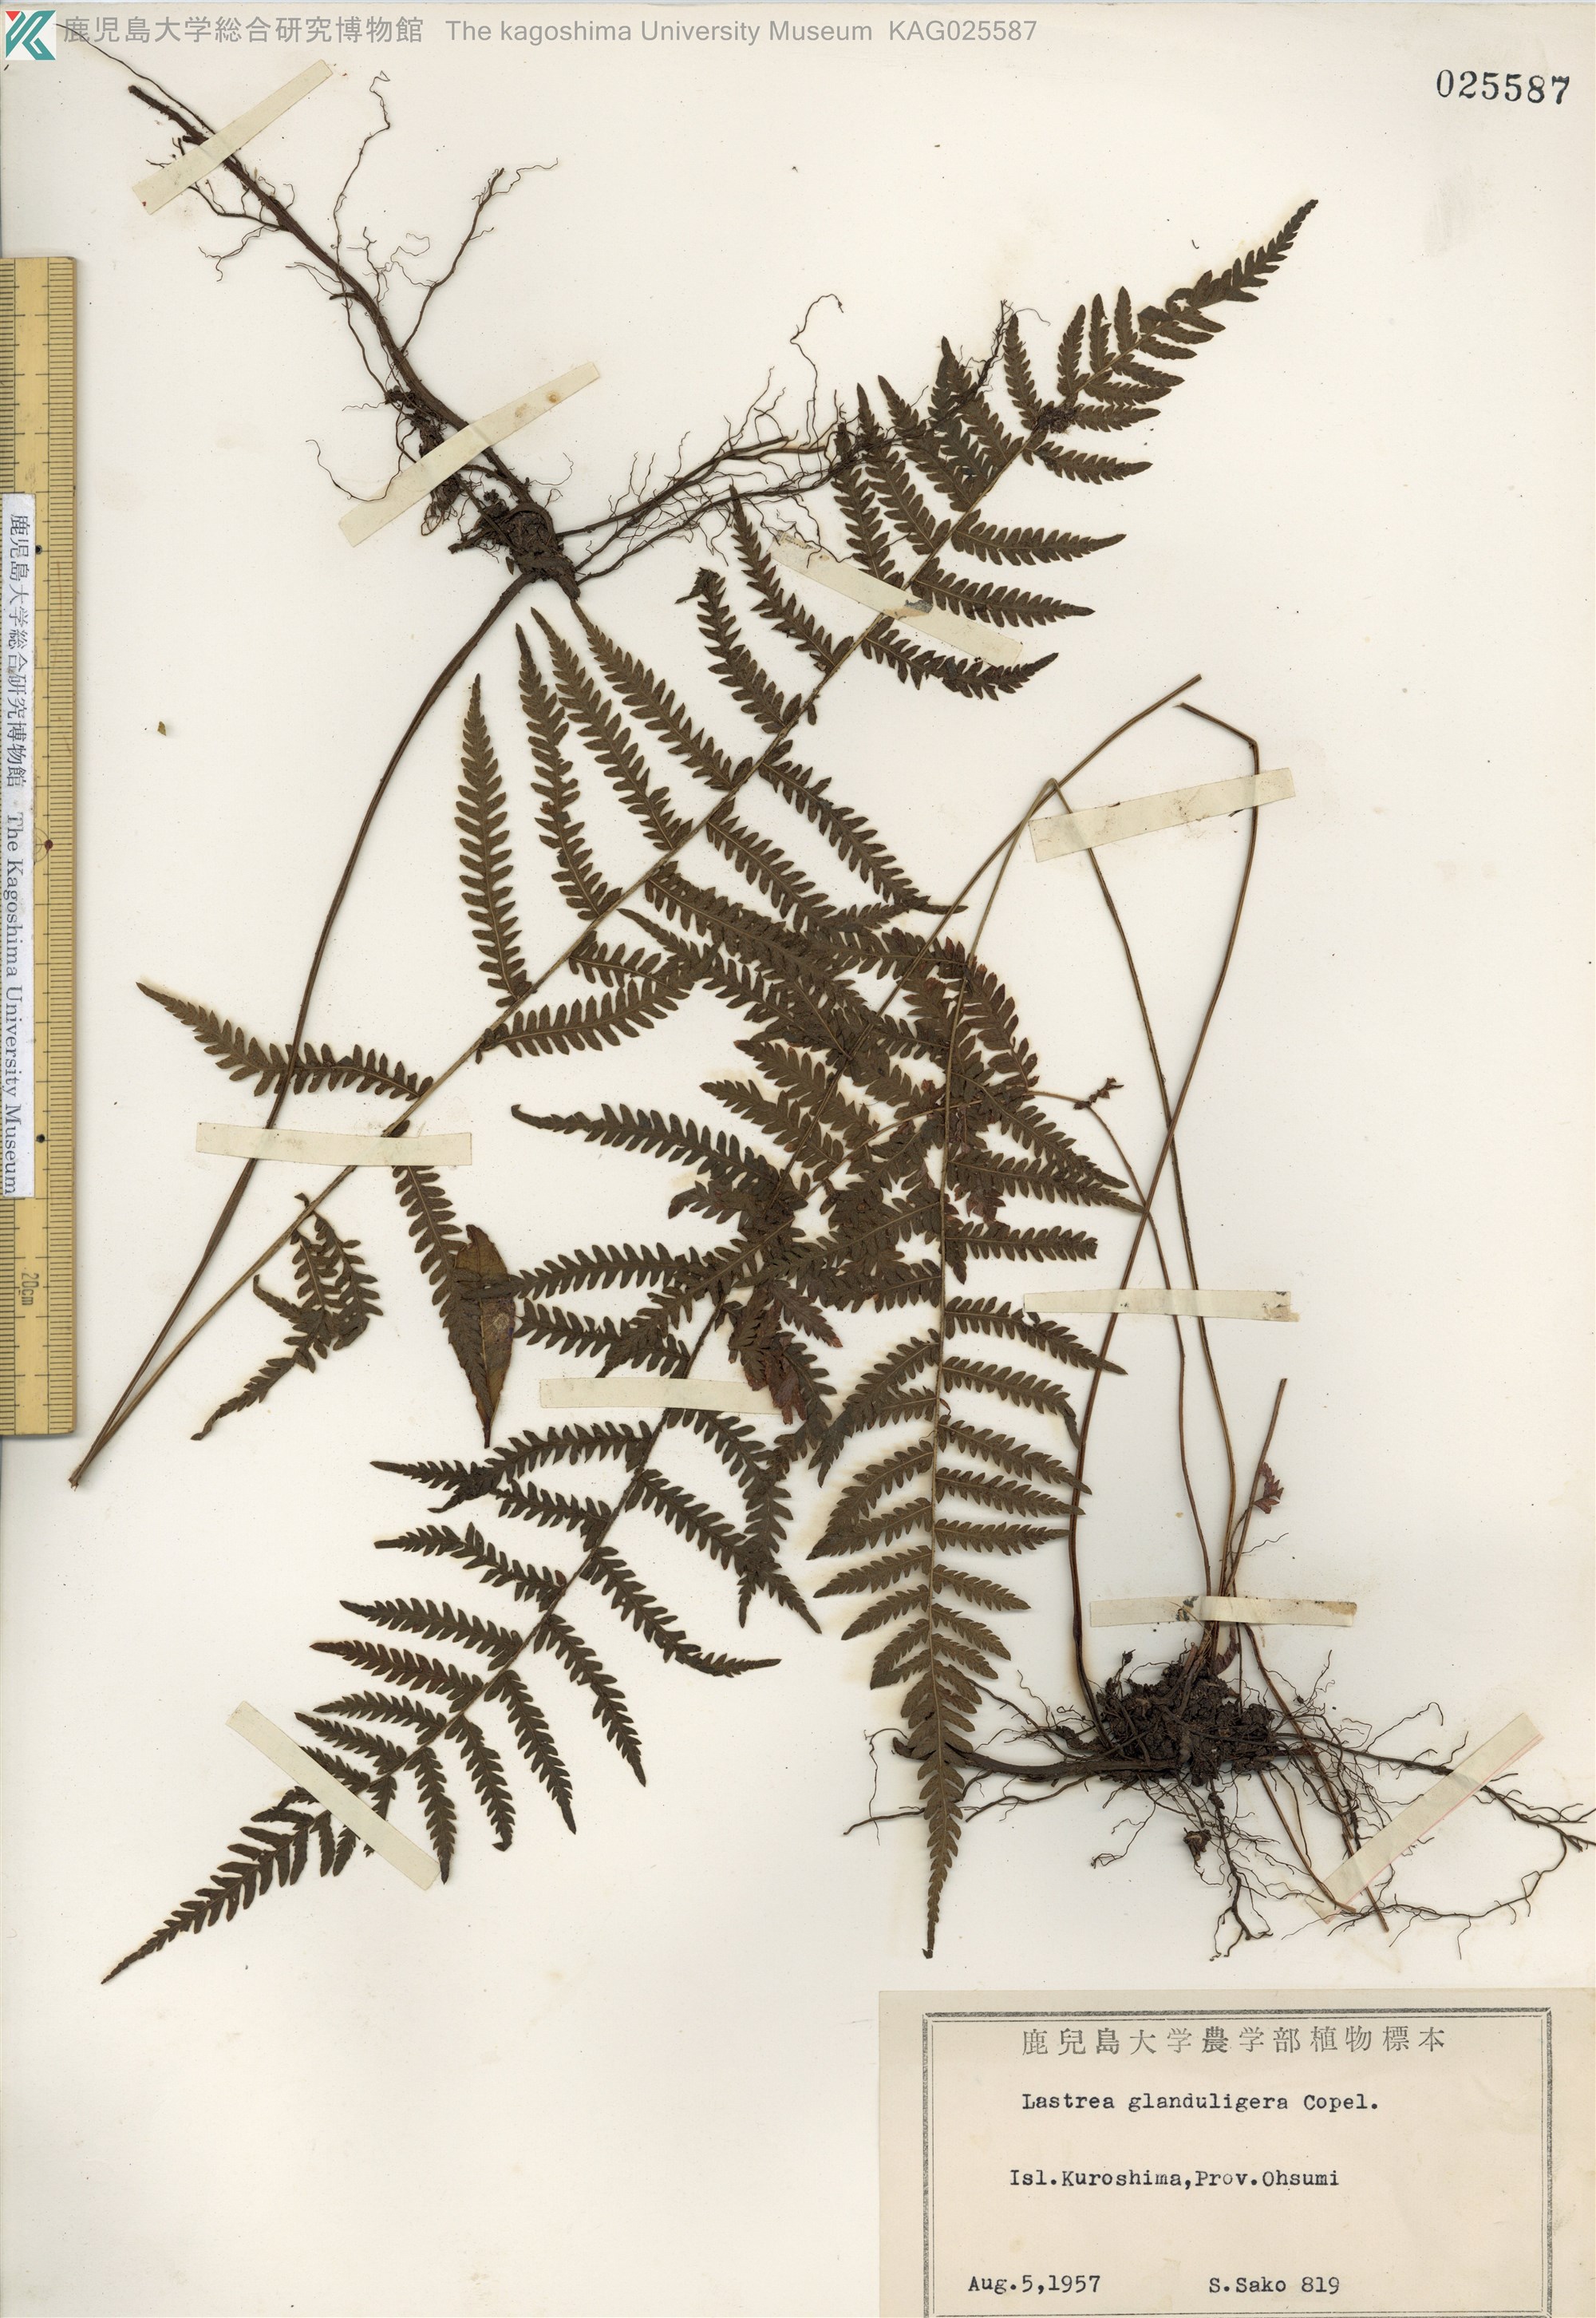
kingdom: Plantae
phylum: Tracheophyta
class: Polypodiopsida
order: Polypodiales
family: Thelypteridaceae
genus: Amauropelta
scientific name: Amauropelta glanduligera
